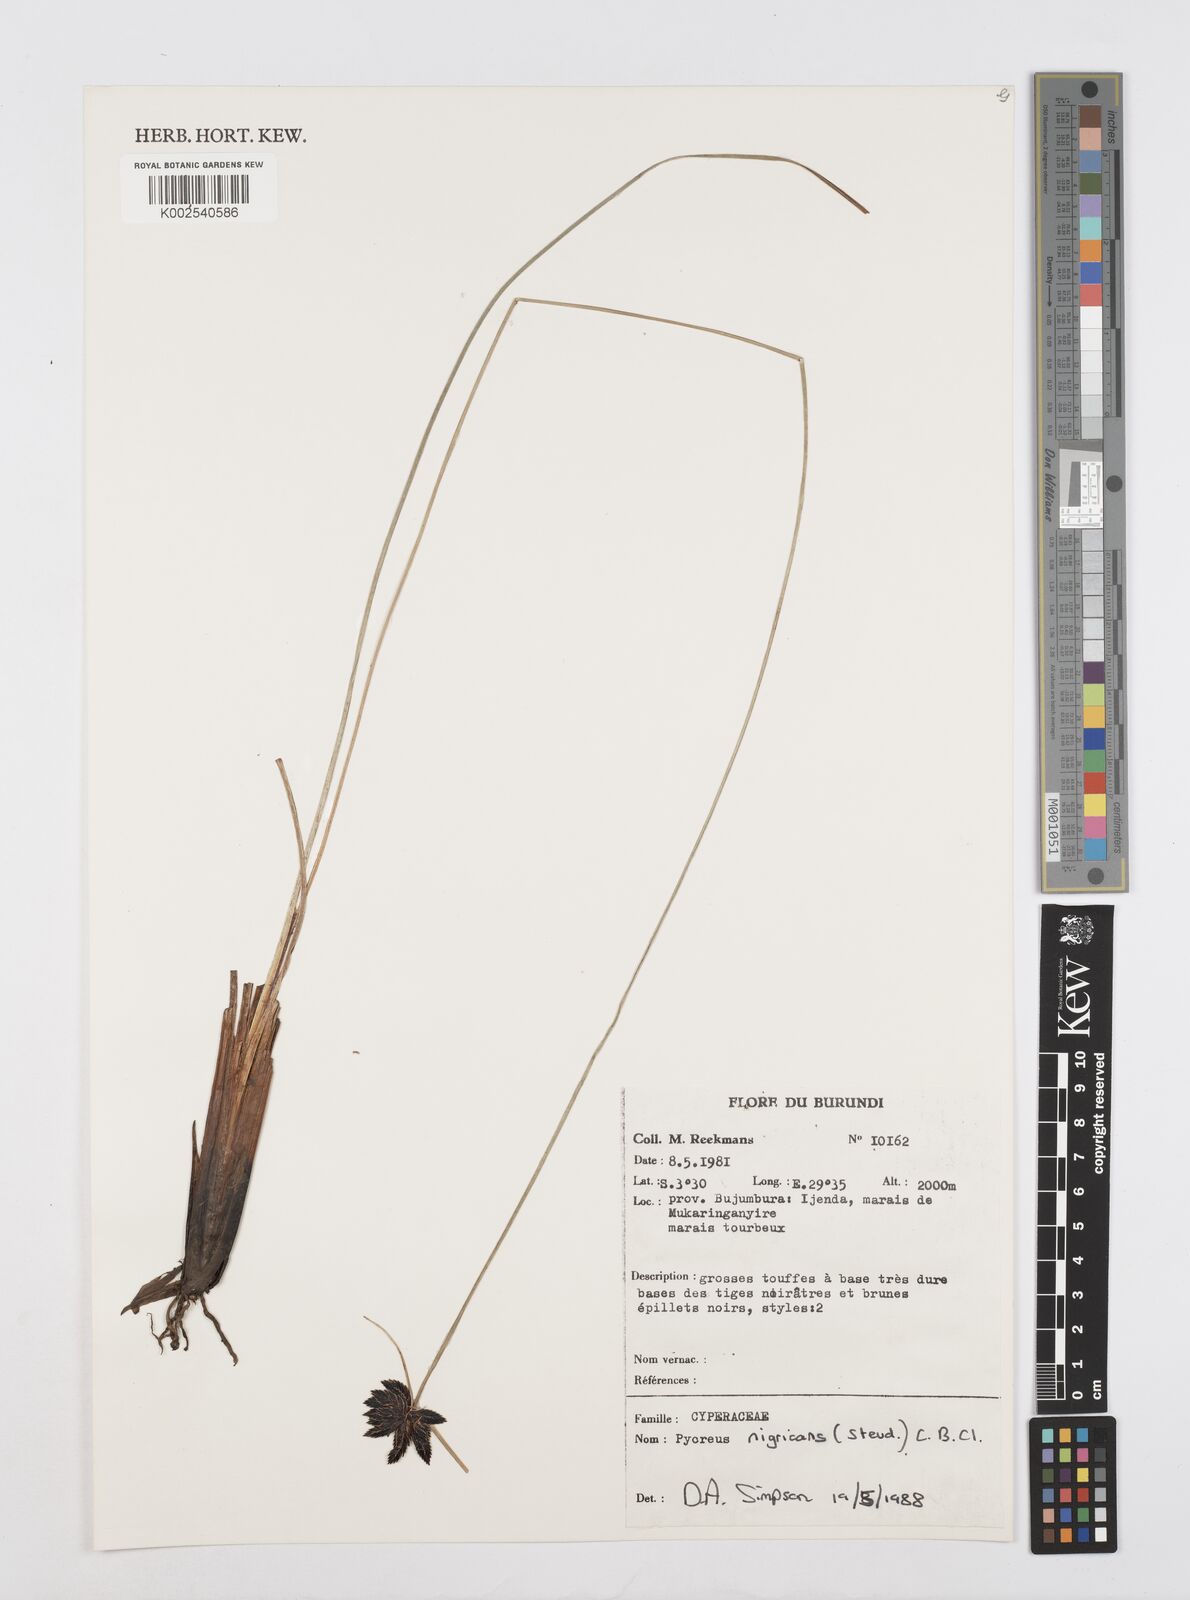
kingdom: Plantae
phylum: Tracheophyta
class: Liliopsida
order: Poales
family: Cyperaceae
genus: Cyperus
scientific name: Cyperus nigricans
